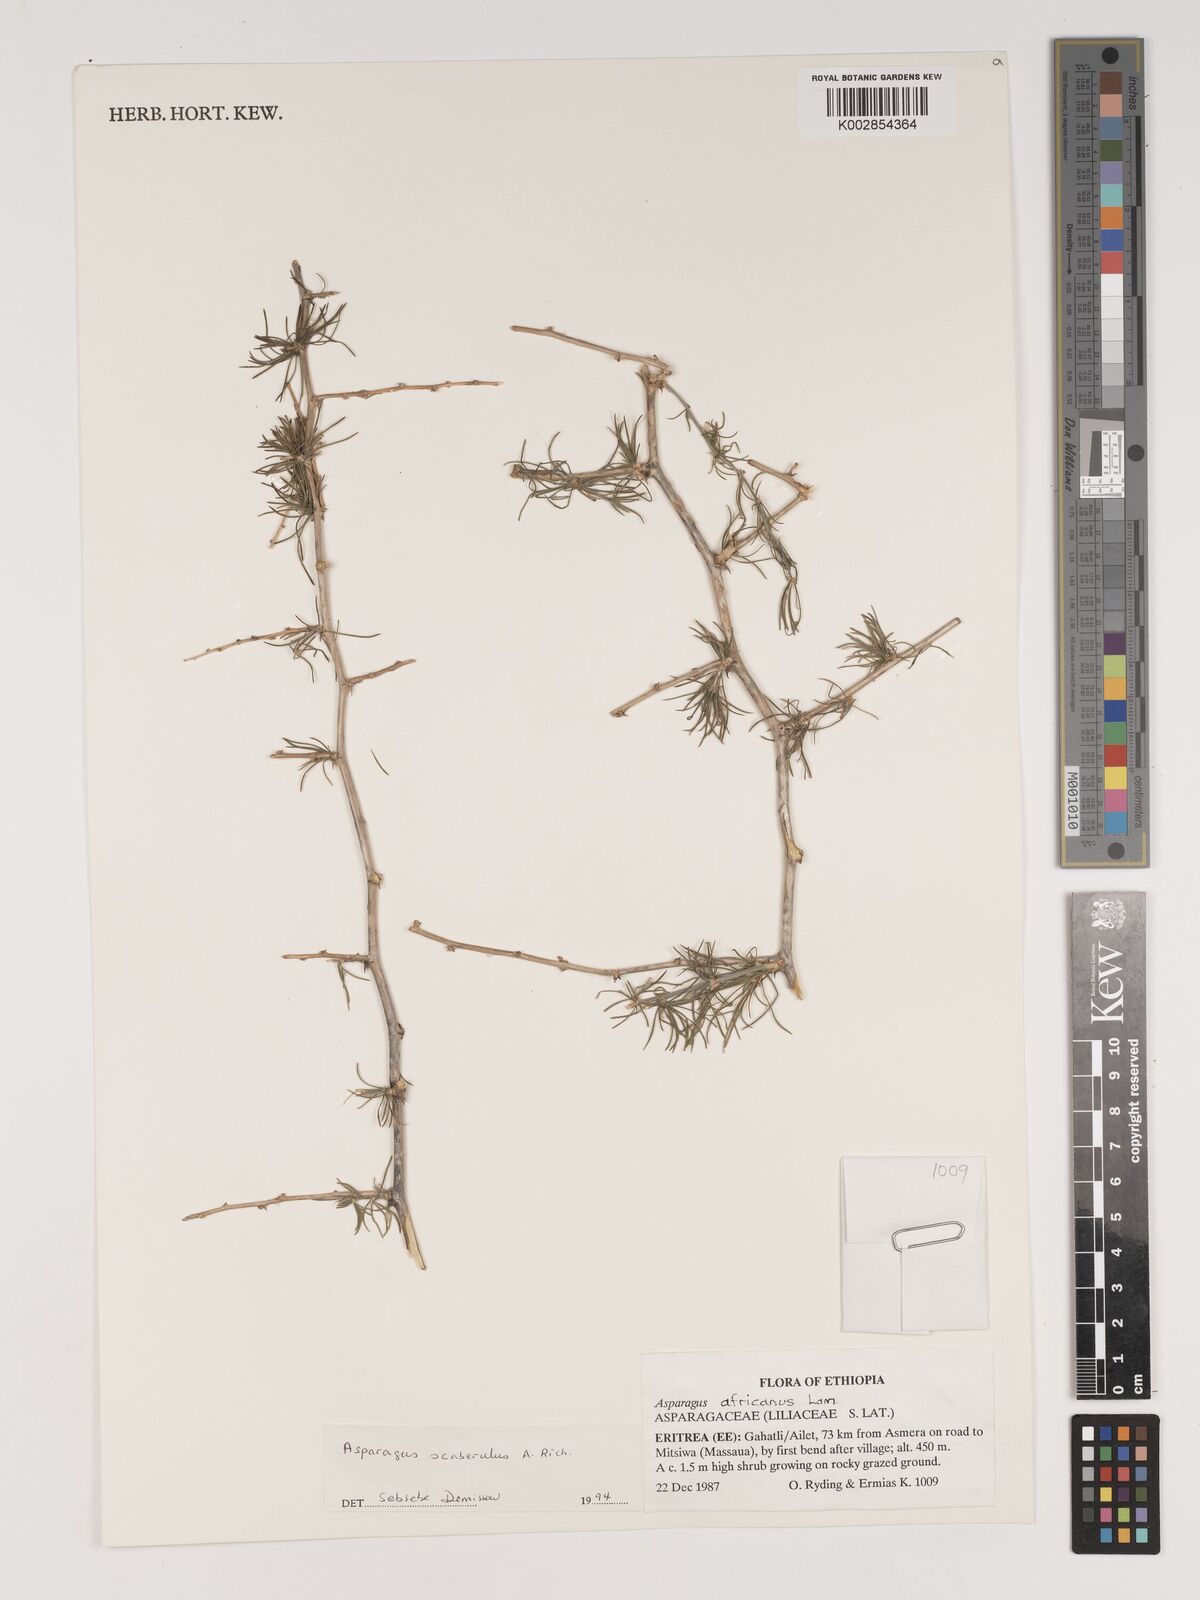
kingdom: Plantae
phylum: Tracheophyta
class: Liliopsida
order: Asparagales
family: Asparagaceae
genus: Asparagus
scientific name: Asparagus scaberulus
